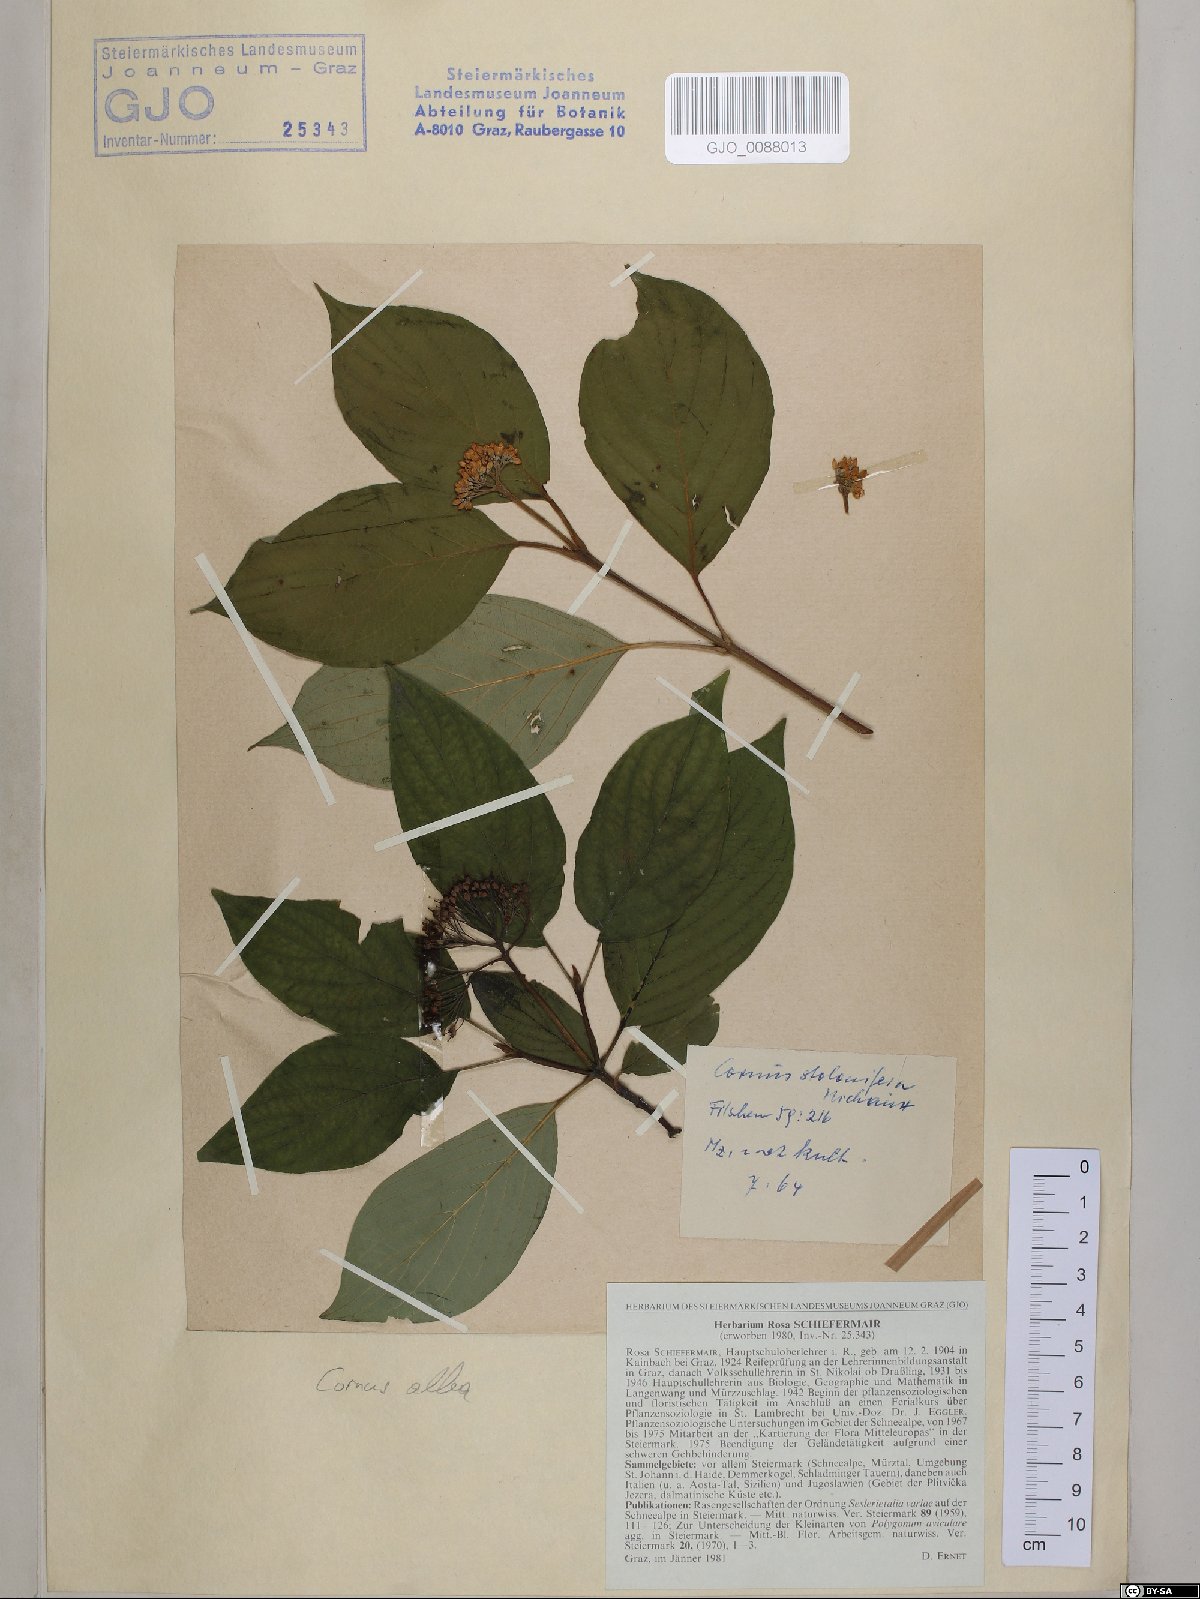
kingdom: Plantae
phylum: Tracheophyta
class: Magnoliopsida
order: Cornales
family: Cornaceae
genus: Cornus
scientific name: Cornus sericea
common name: Red-osier dogwood
